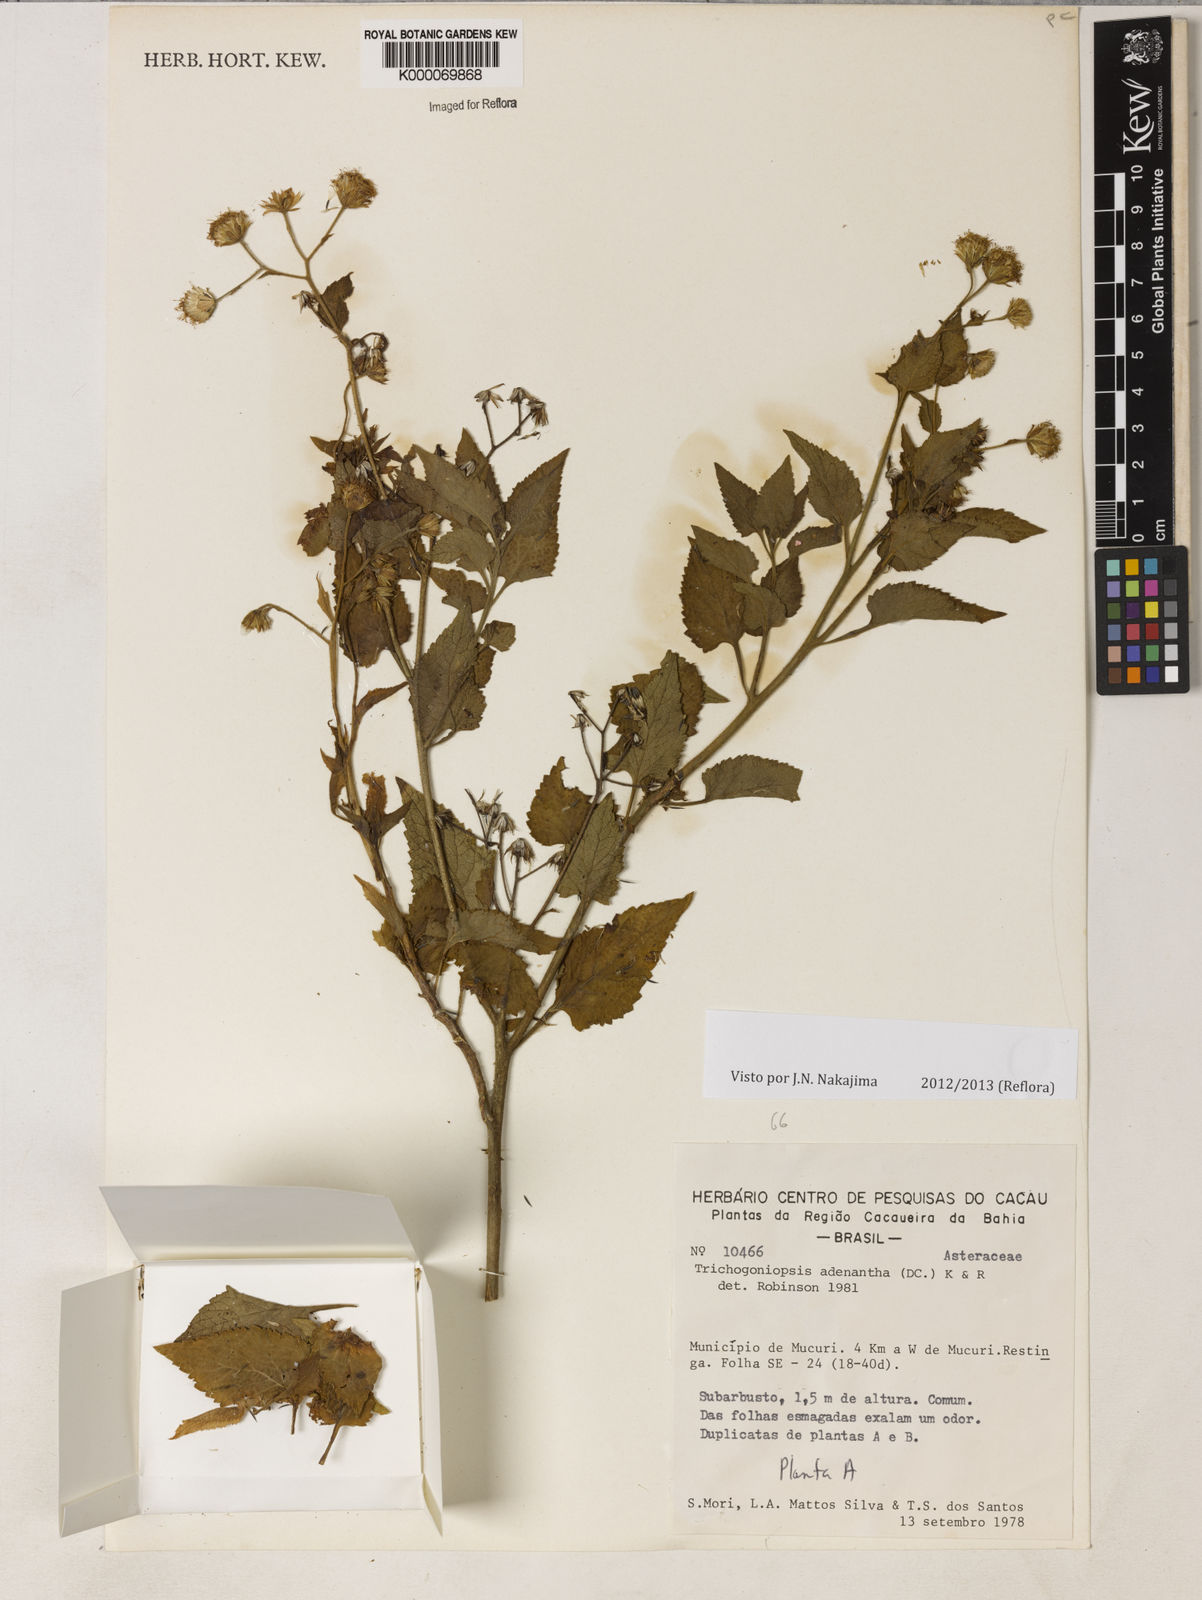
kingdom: Plantae
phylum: Tracheophyta
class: Magnoliopsida
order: Asterales
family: Asteraceae
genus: Trichogoniopsis
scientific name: Trichogoniopsis adenantha
